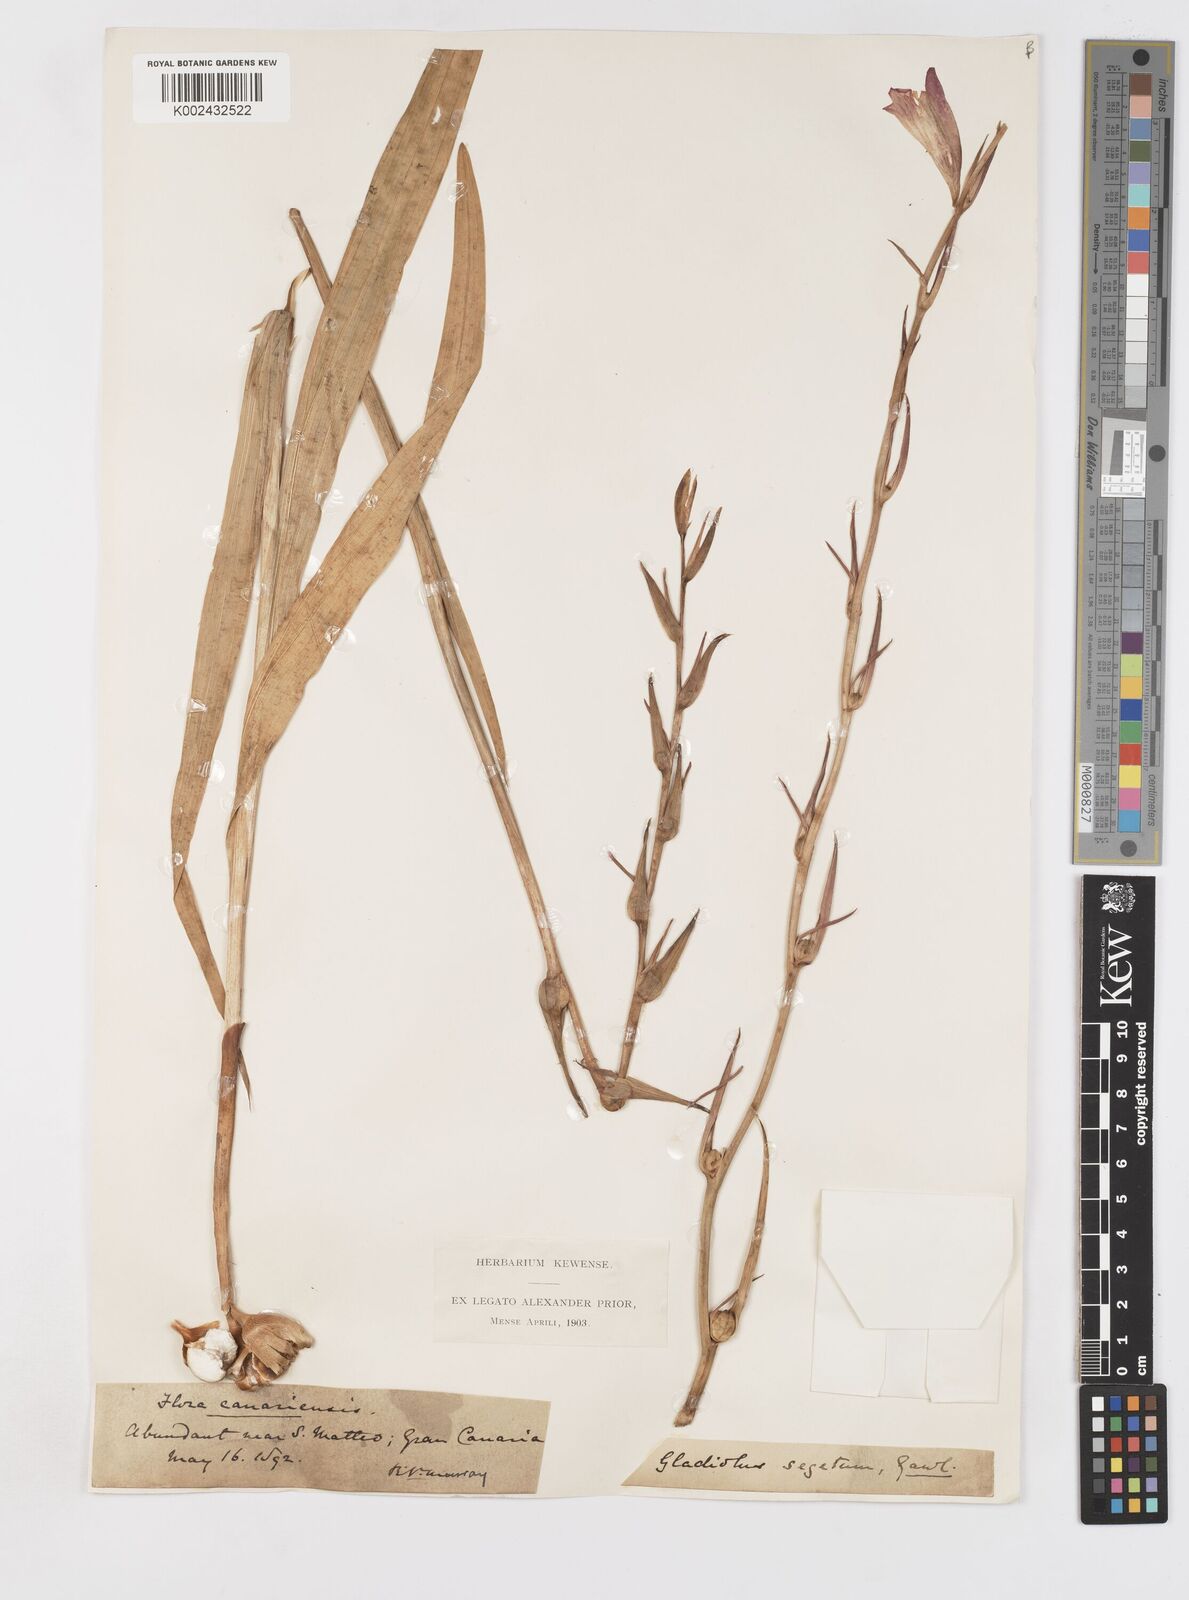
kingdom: Plantae
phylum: Tracheophyta
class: Liliopsida
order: Asparagales
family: Iridaceae
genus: Gladiolus
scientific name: Gladiolus communis
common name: Eastern gladiolus
